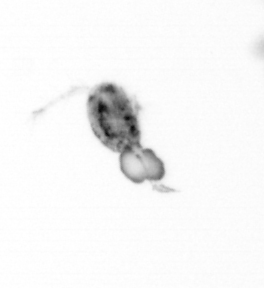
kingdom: Animalia
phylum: Arthropoda
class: Copepoda
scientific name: Copepoda
